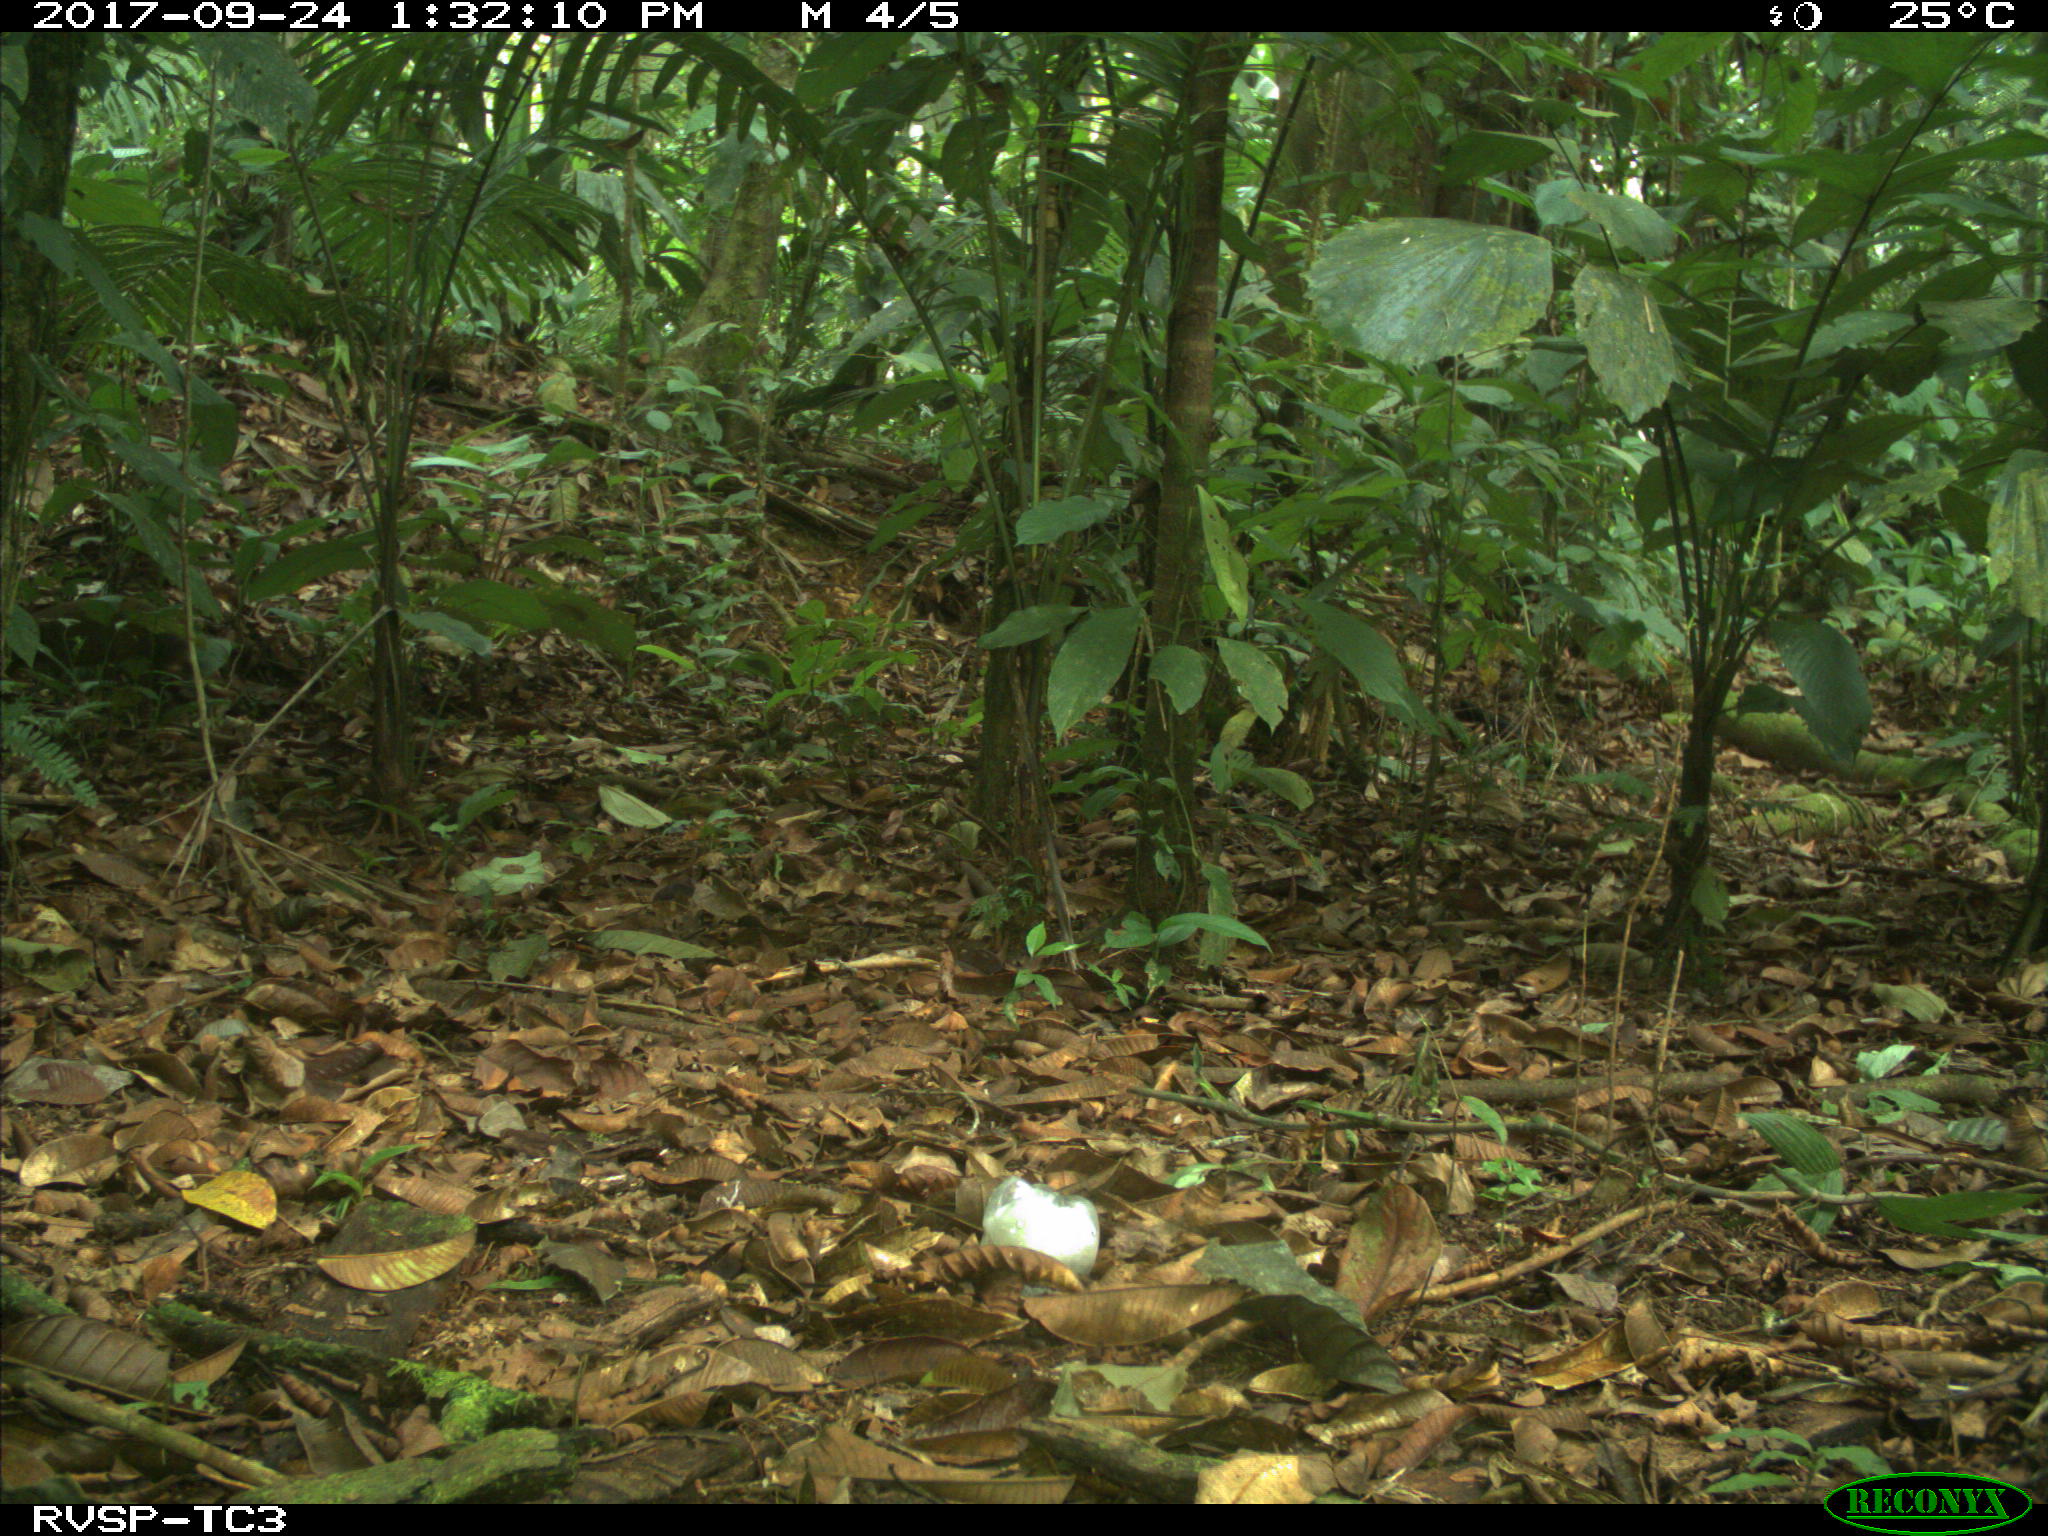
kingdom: Animalia
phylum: Chordata
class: Mammalia
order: Rodentia
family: Dasyproctidae
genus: Dasyprocta
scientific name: Dasyprocta punctata
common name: Central american agouti
